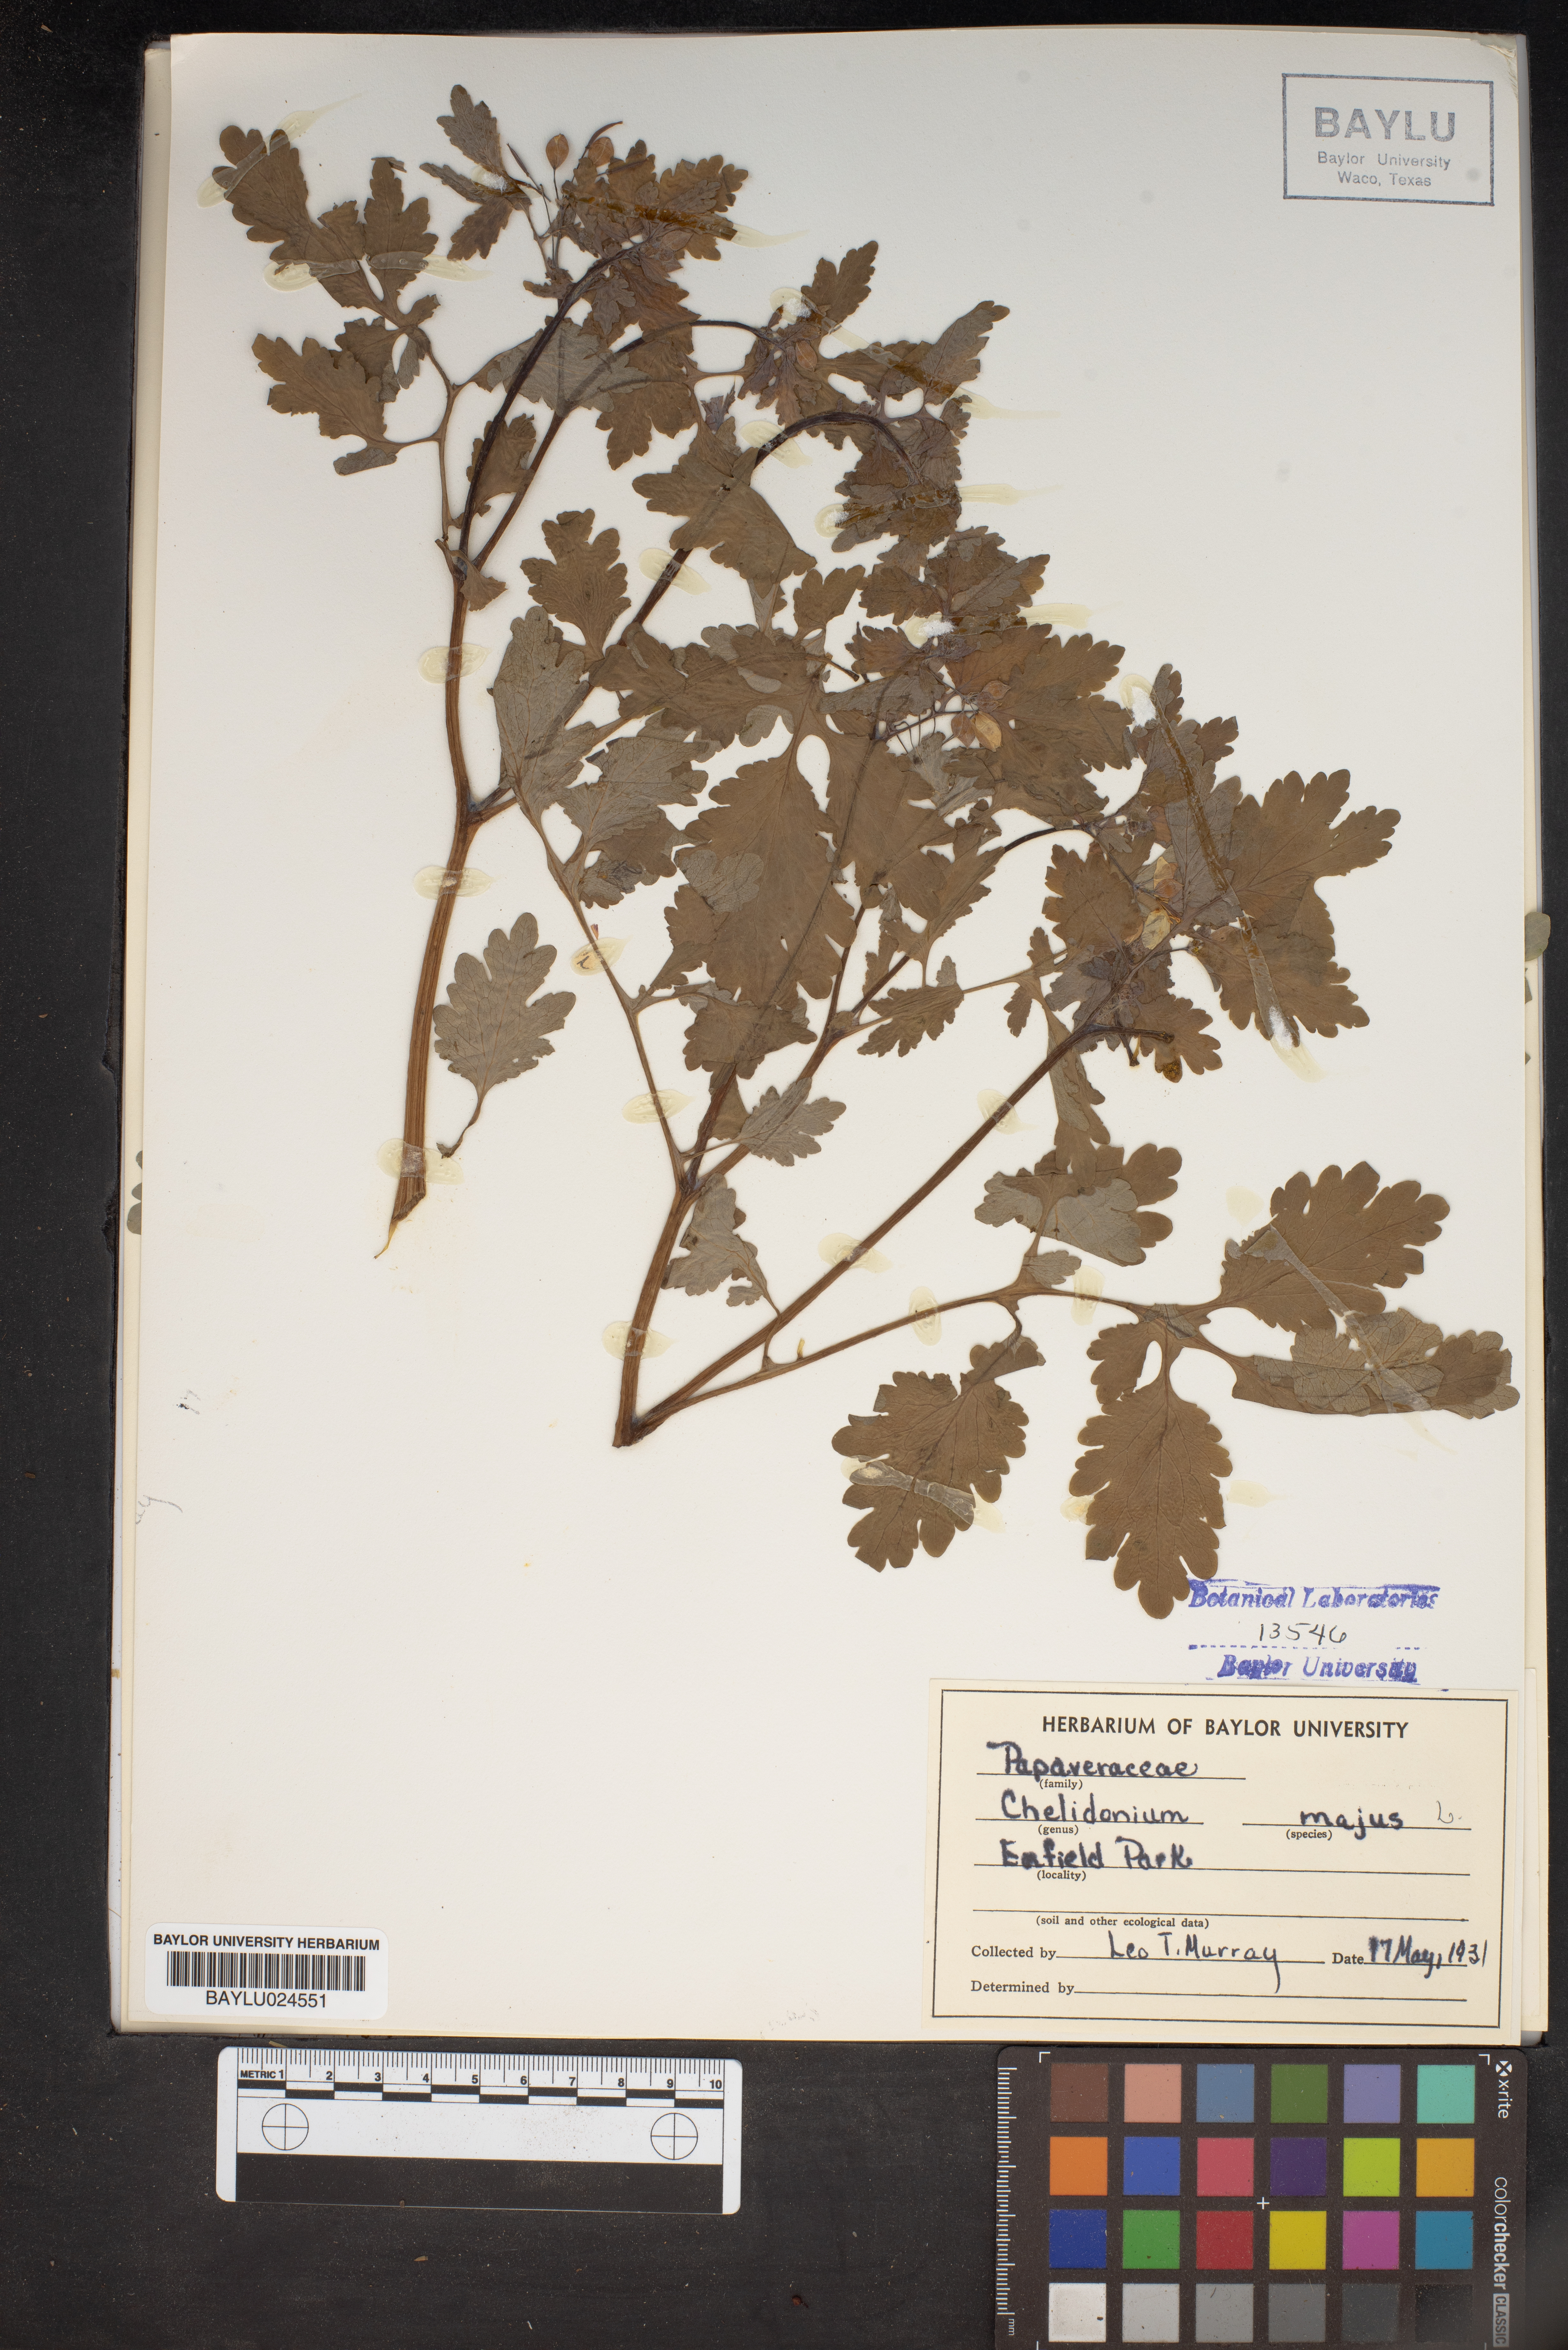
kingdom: Plantae
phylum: Tracheophyta
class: Magnoliopsida
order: Ranunculales
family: Papaveraceae
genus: Chelidonium
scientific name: Chelidonium majus
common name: Greater celandine
